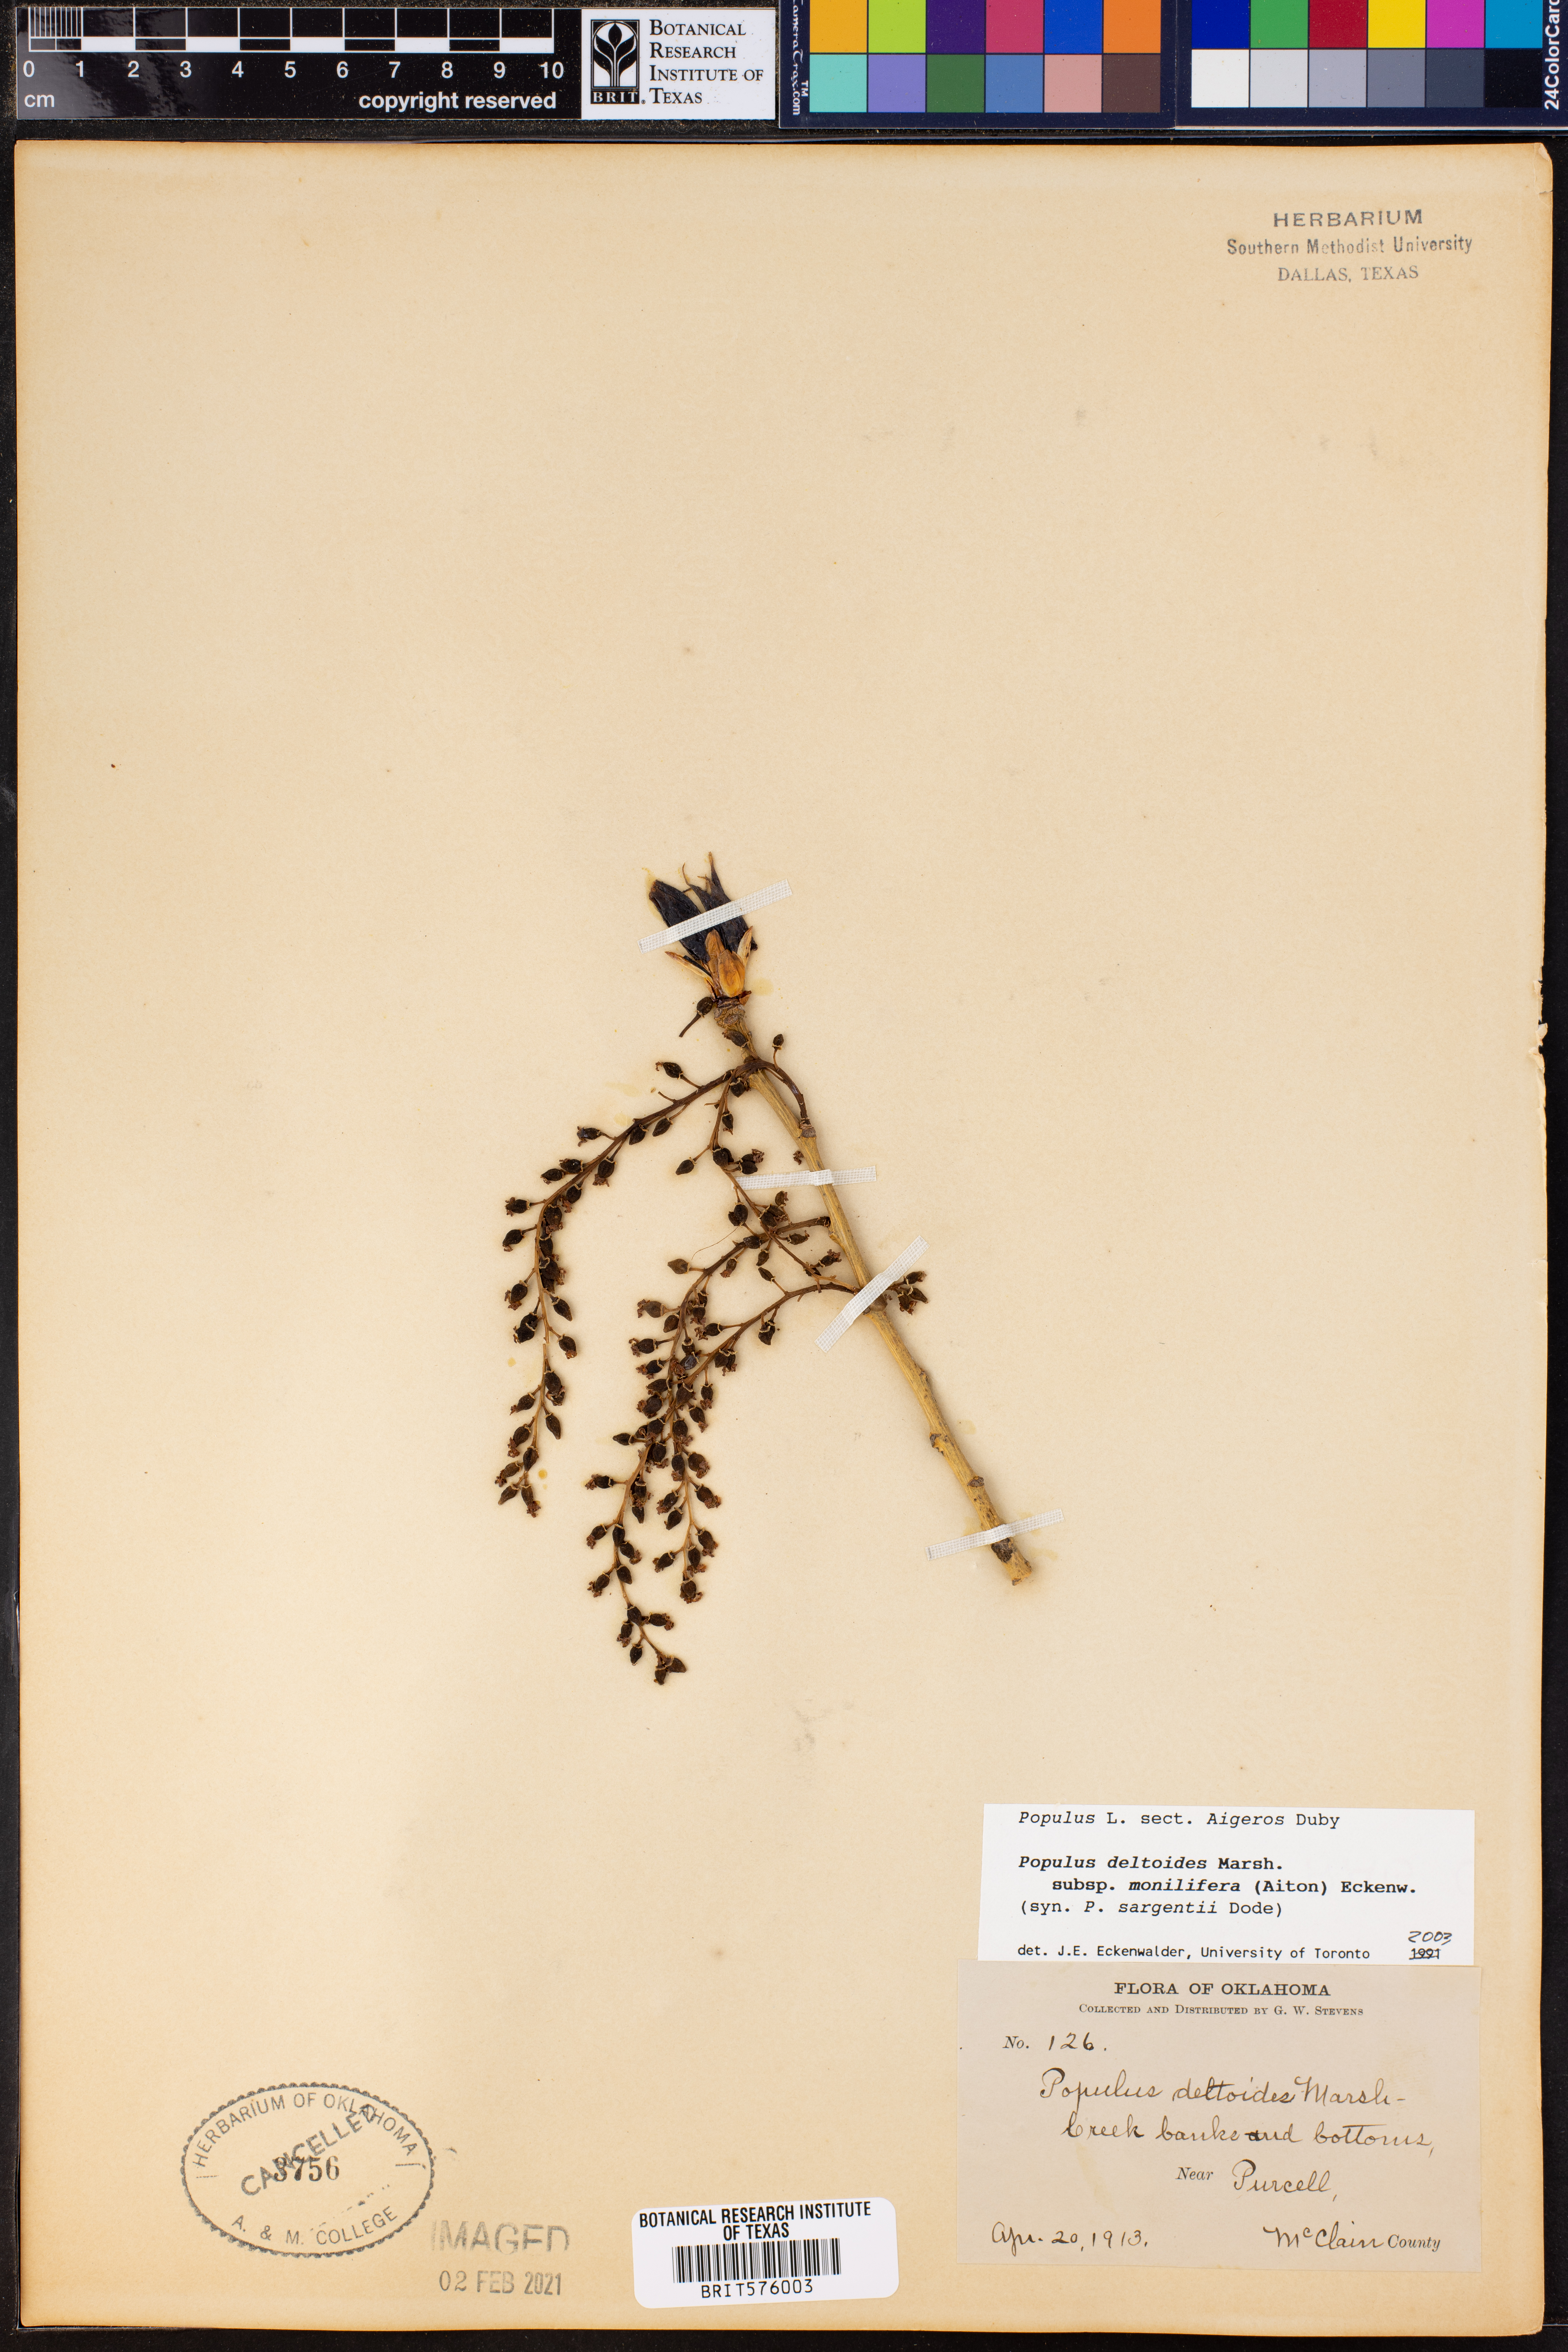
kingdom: Plantae
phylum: Tracheophyta
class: Magnoliopsida
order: Malpighiales
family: Salicaceae
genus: Populus
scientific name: Populus deltoides
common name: Eastern cottonwood
